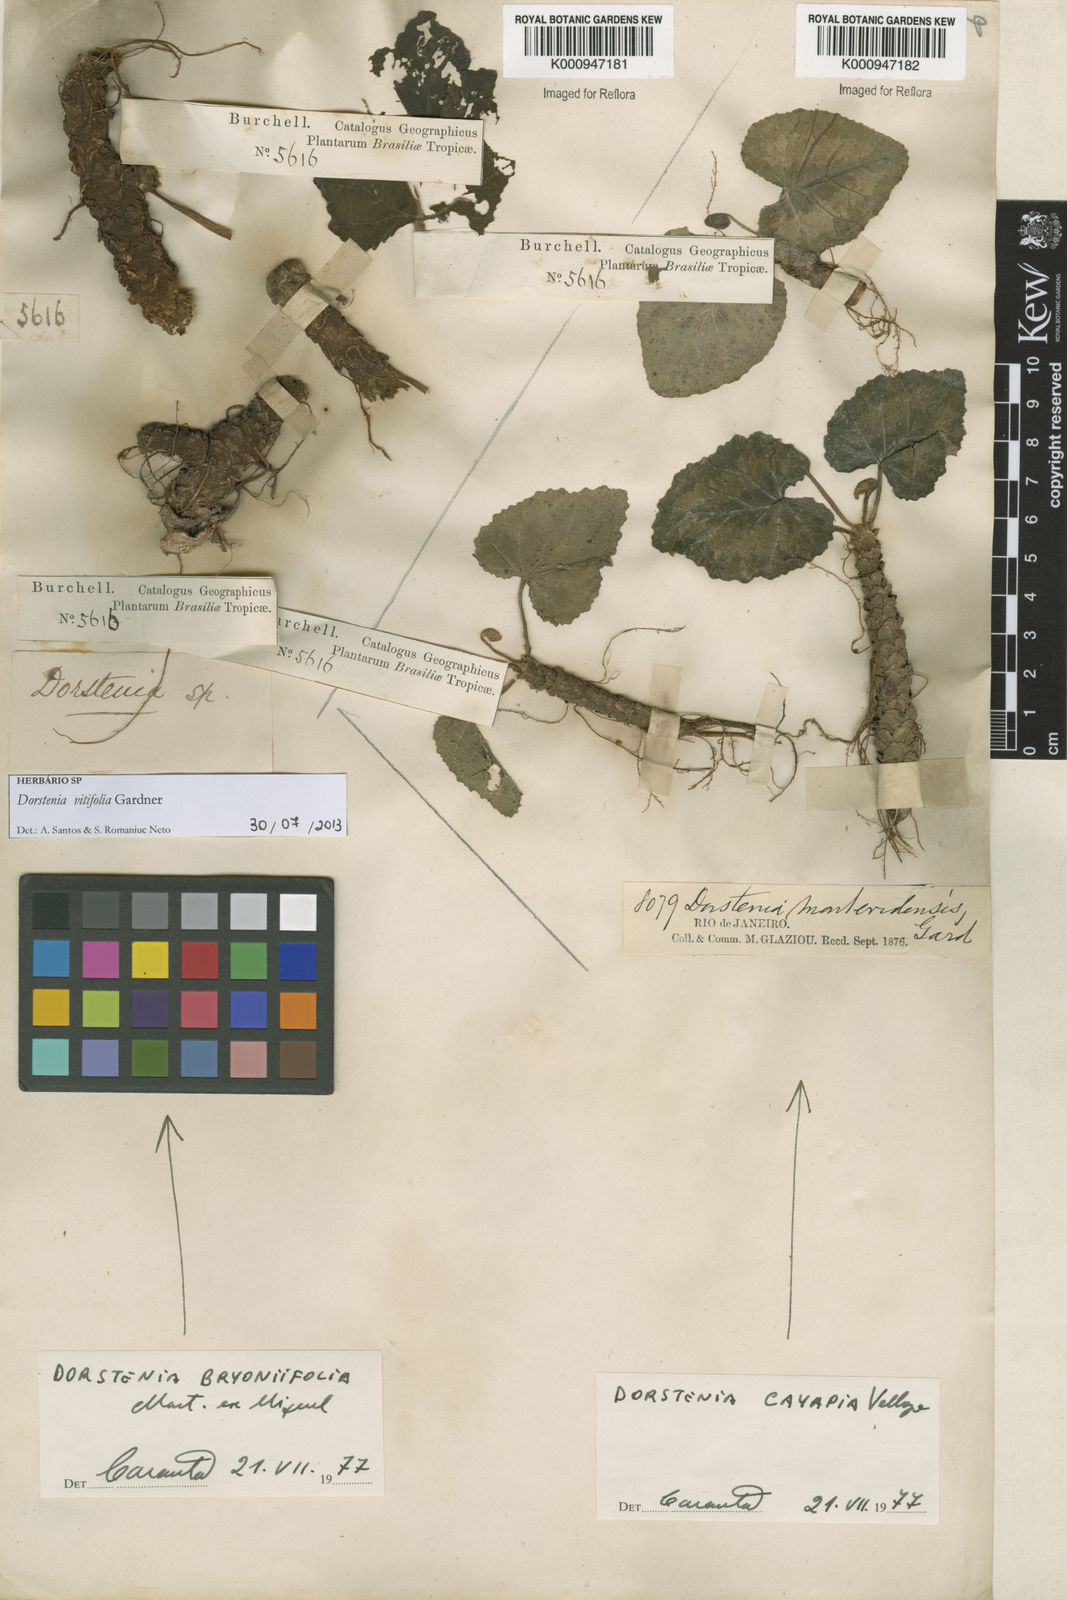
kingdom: Plantae
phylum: Tracheophyta
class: Magnoliopsida
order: Rosales
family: Moraceae
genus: Dorstenia
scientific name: Dorstenia cayapia
